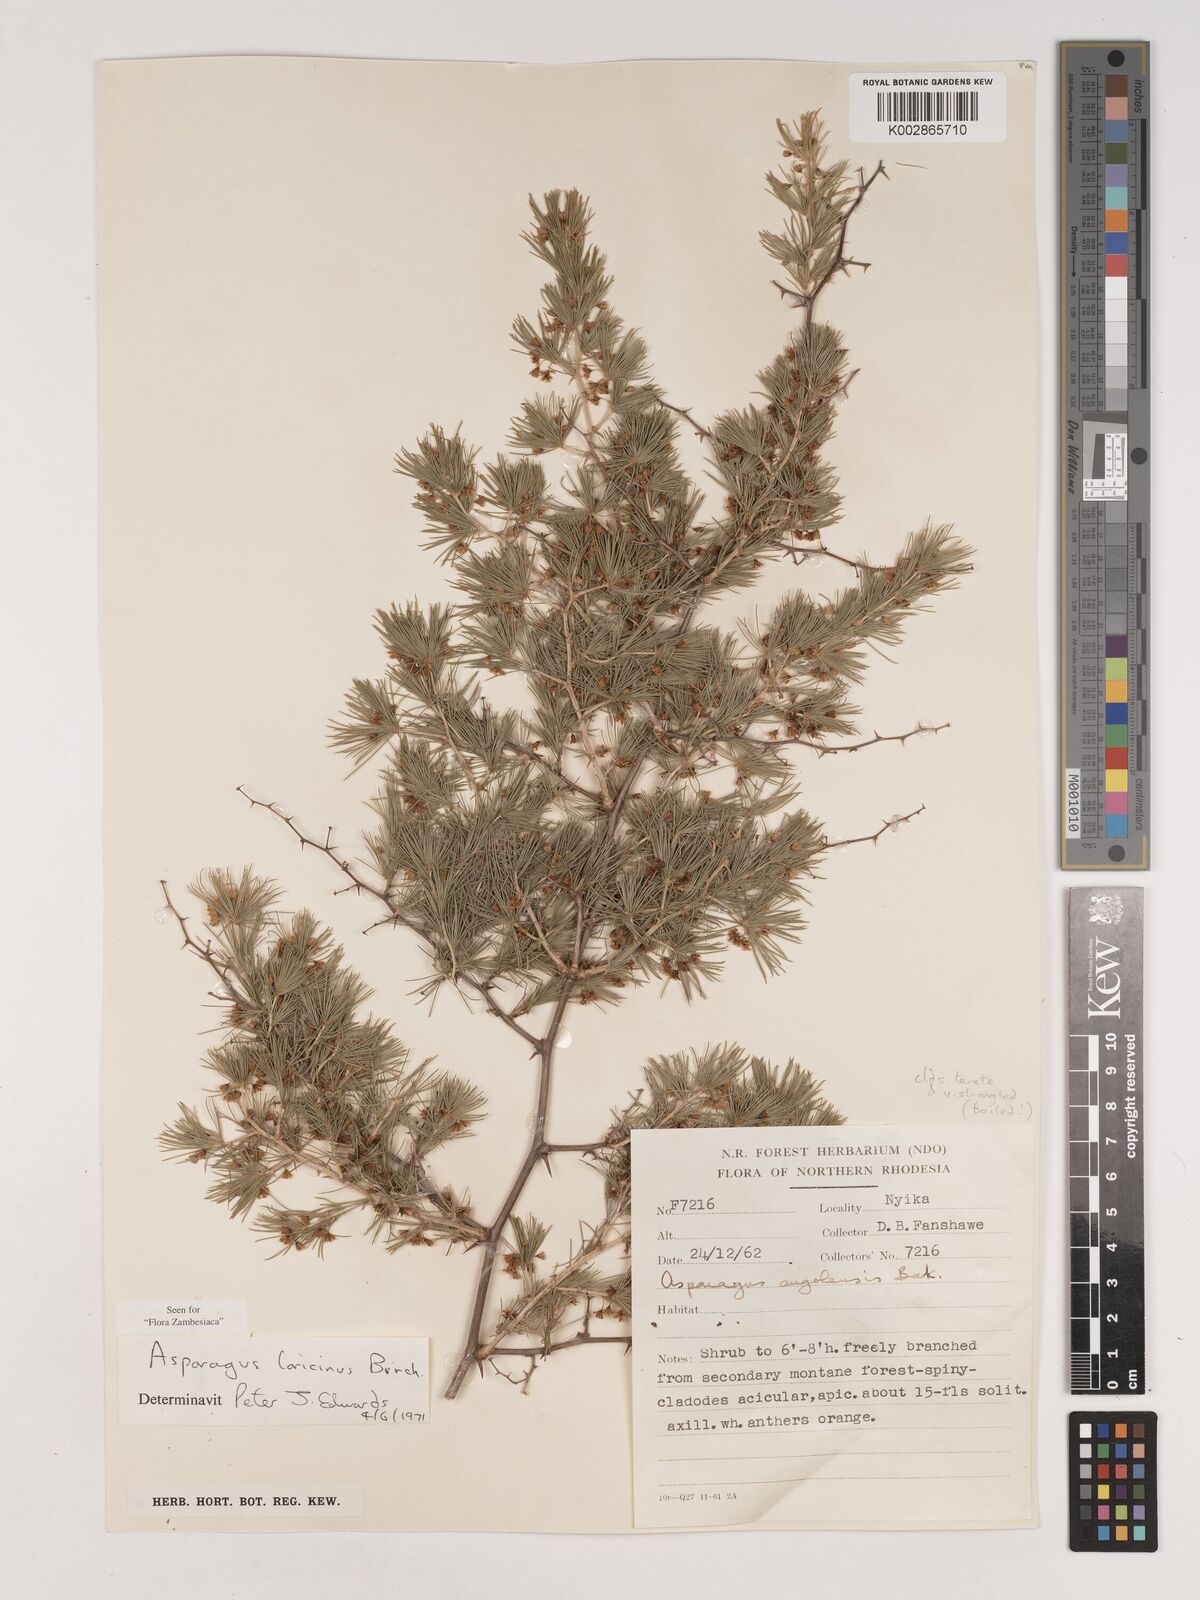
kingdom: Plantae
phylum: Tracheophyta
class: Liliopsida
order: Asparagales
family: Asparagaceae
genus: Asparagus
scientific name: Asparagus laricinus
